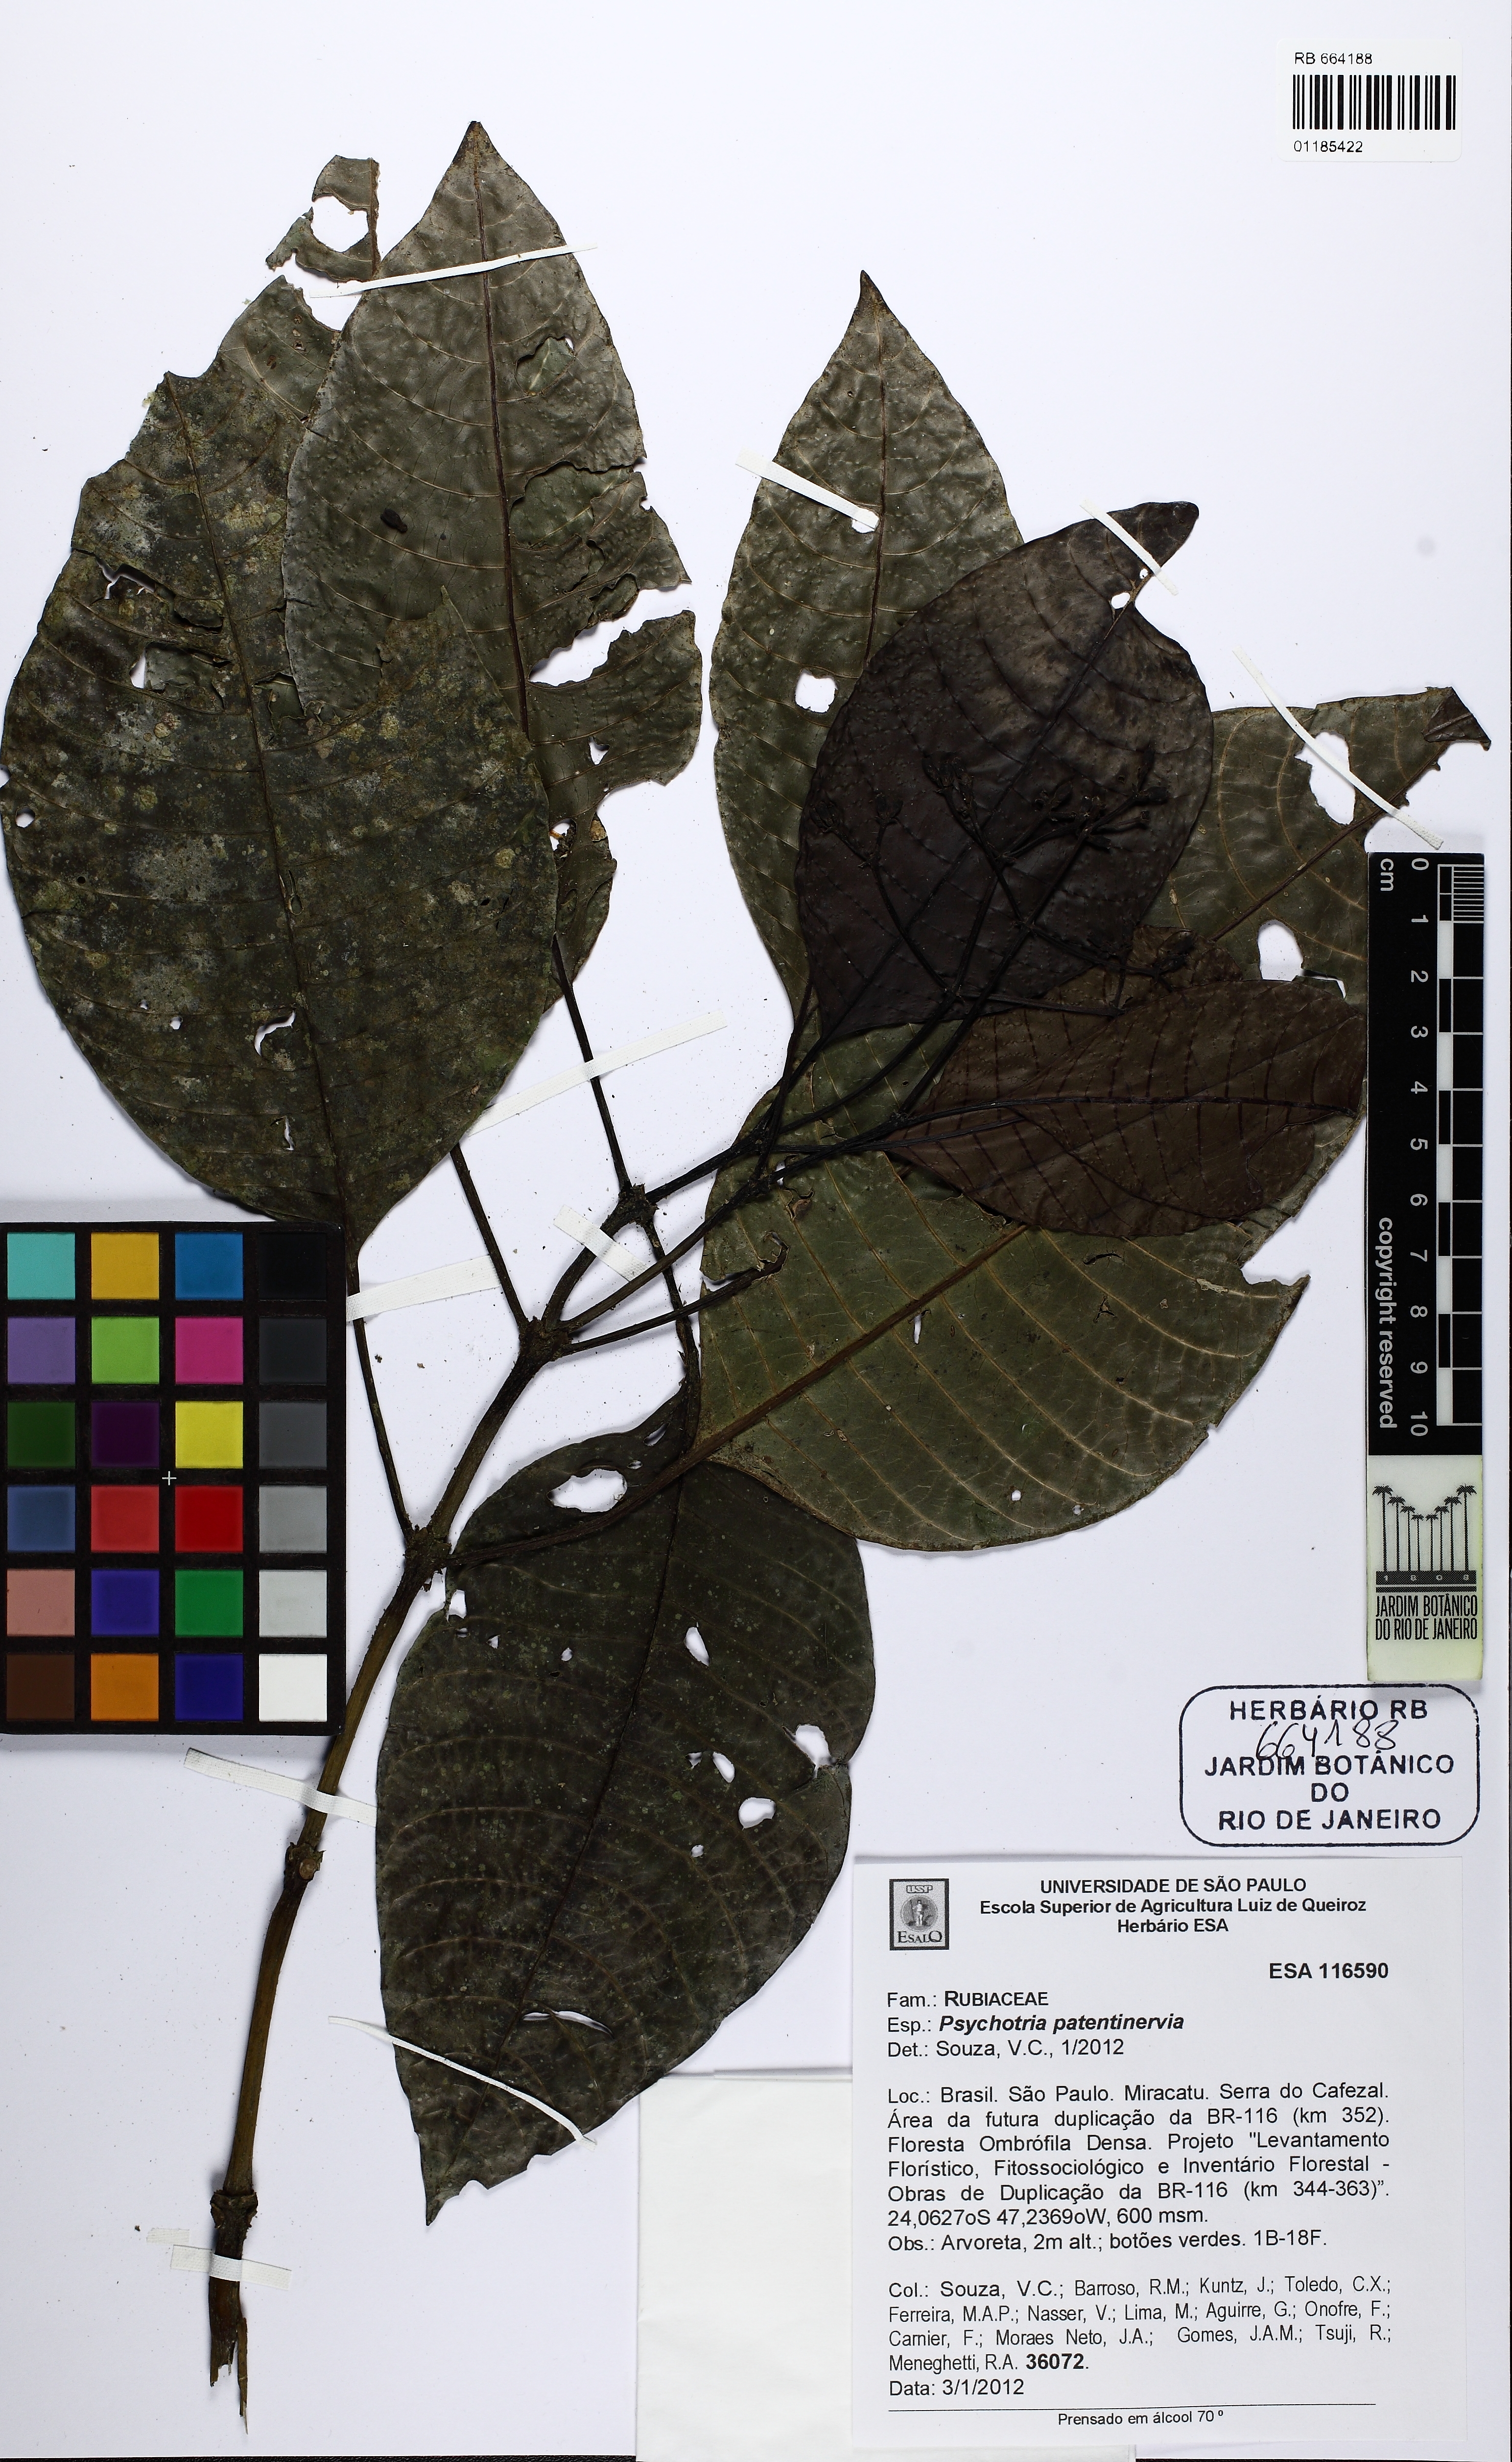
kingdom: Plantae
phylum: Tracheophyta
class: Magnoliopsida
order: Gentianales
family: Rubiaceae
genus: Psychotria
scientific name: Psychotria patentinervia
